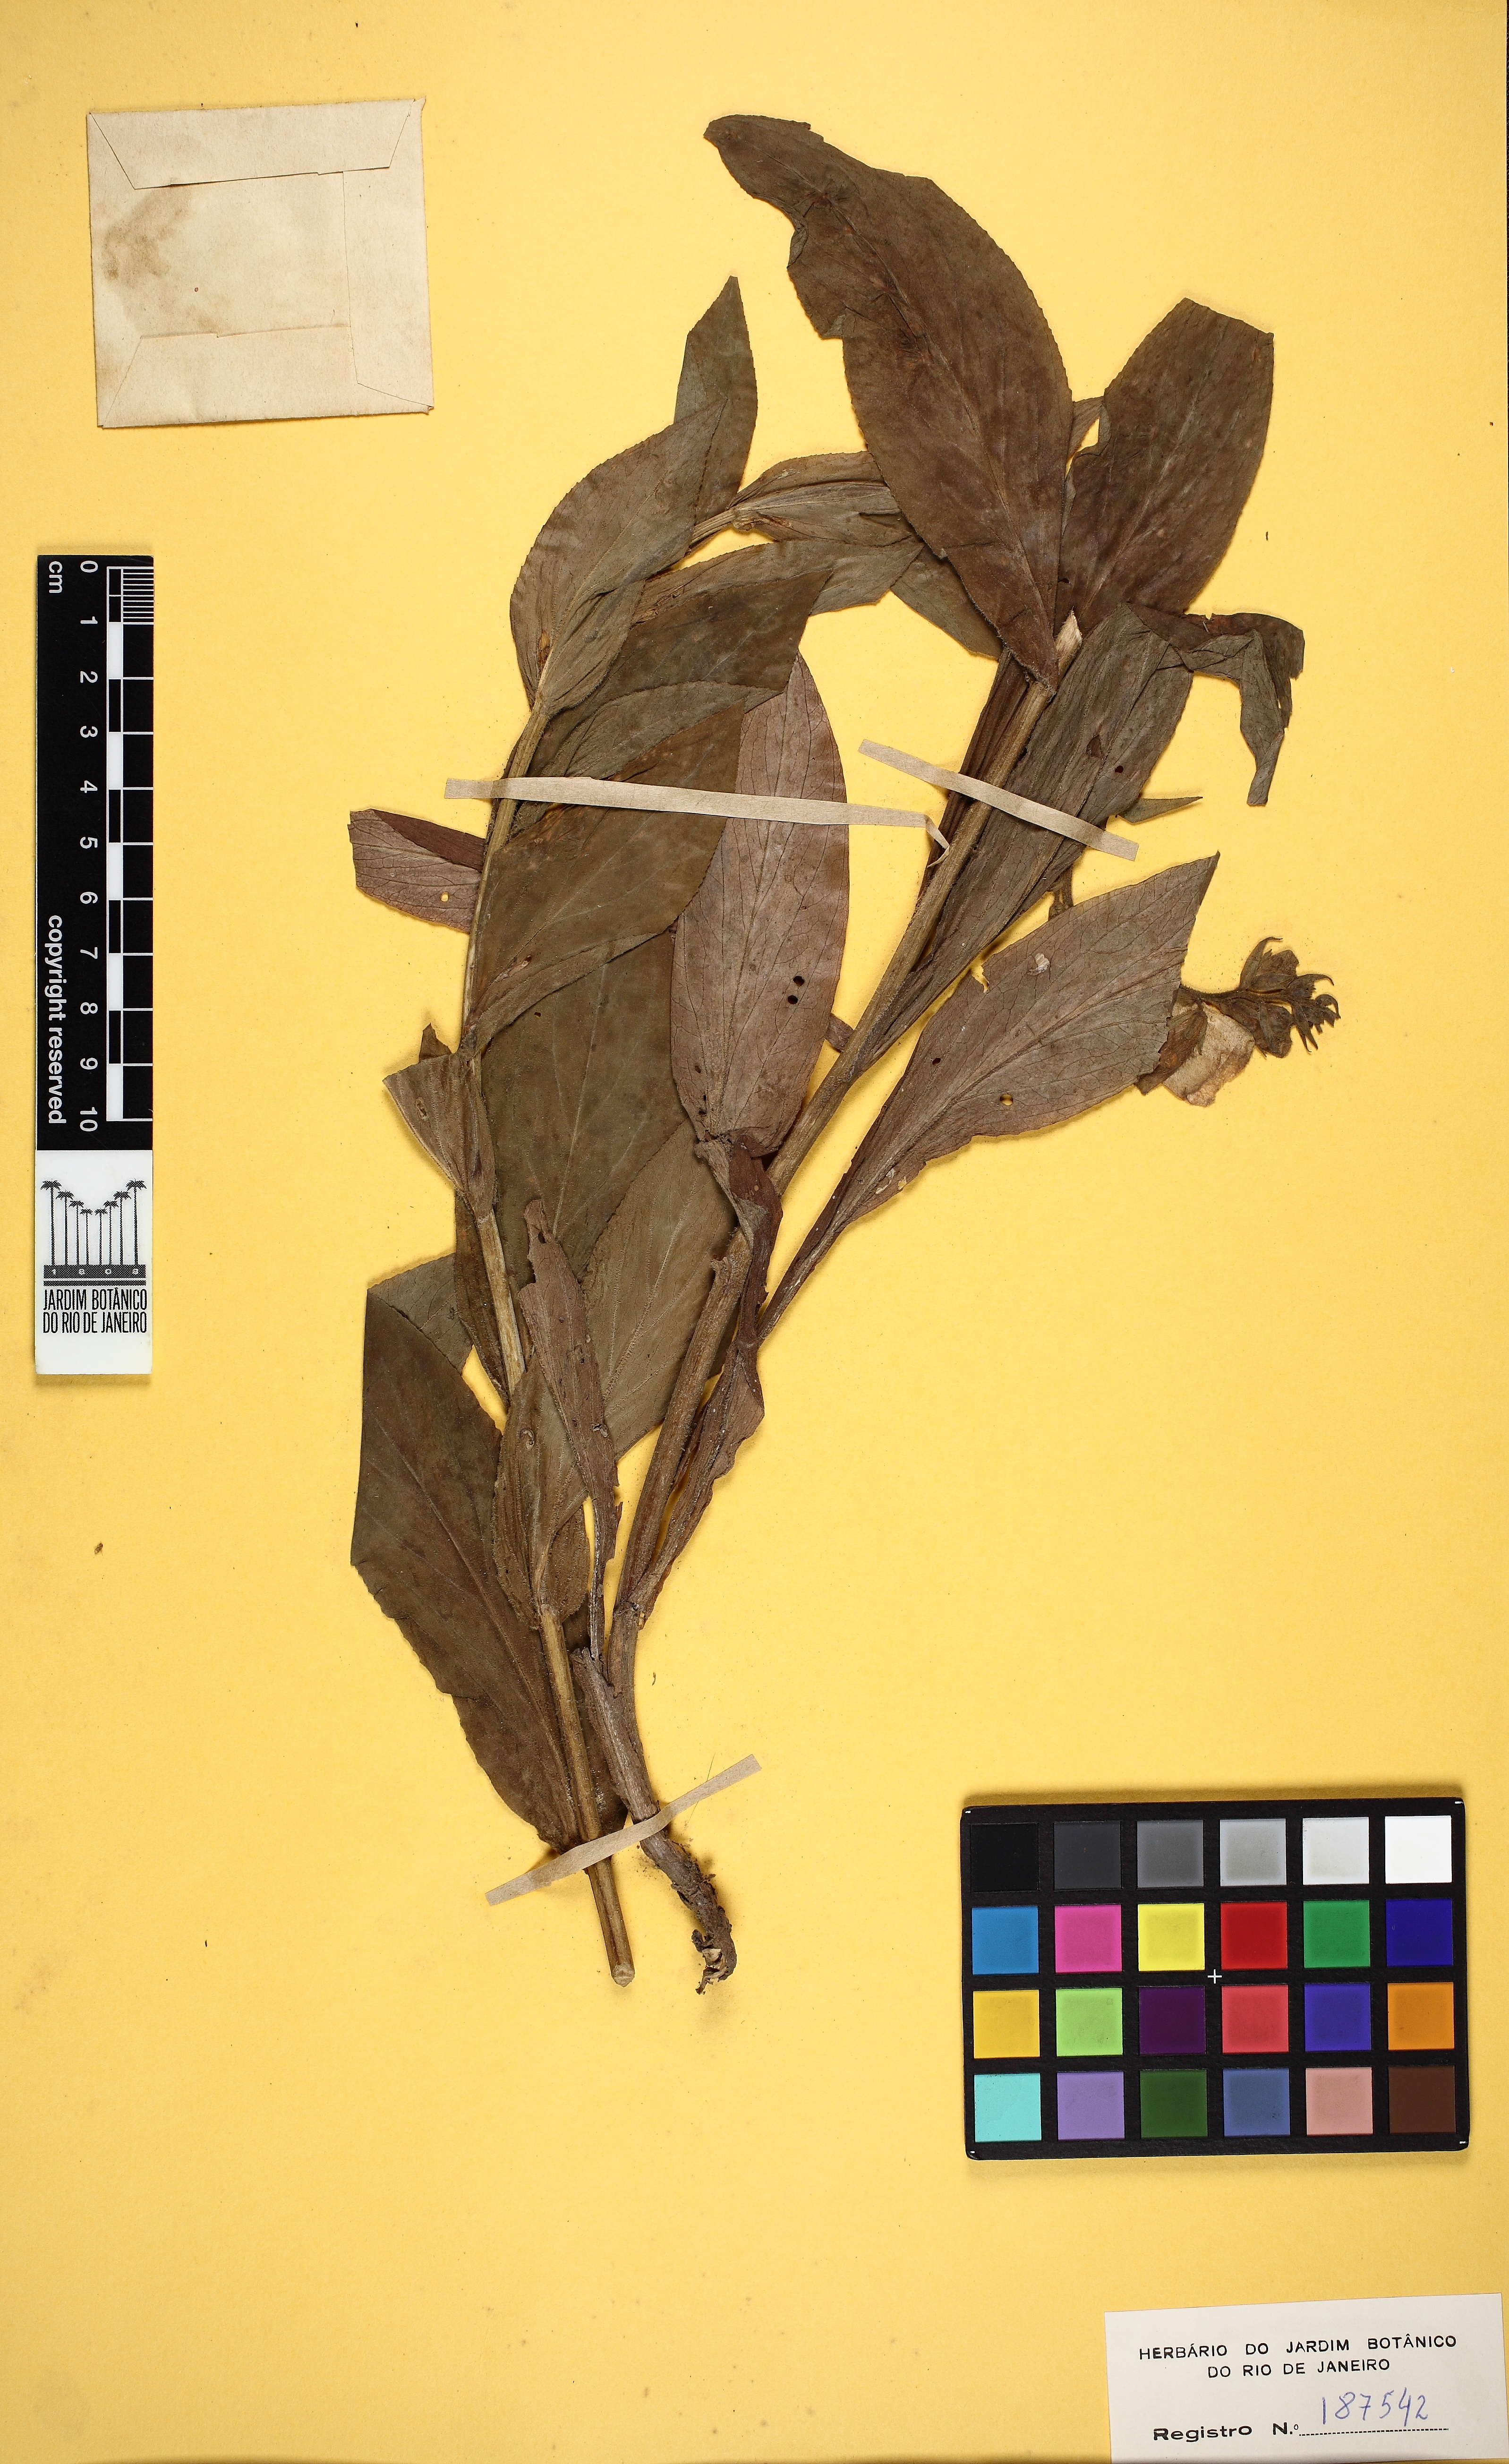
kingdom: Plantae
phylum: Tracheophyta
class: Magnoliopsida
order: Lamiales
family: Plantaginaceae
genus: Digitalis
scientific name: Digitalis grandiflora
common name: Yellow foxglove
